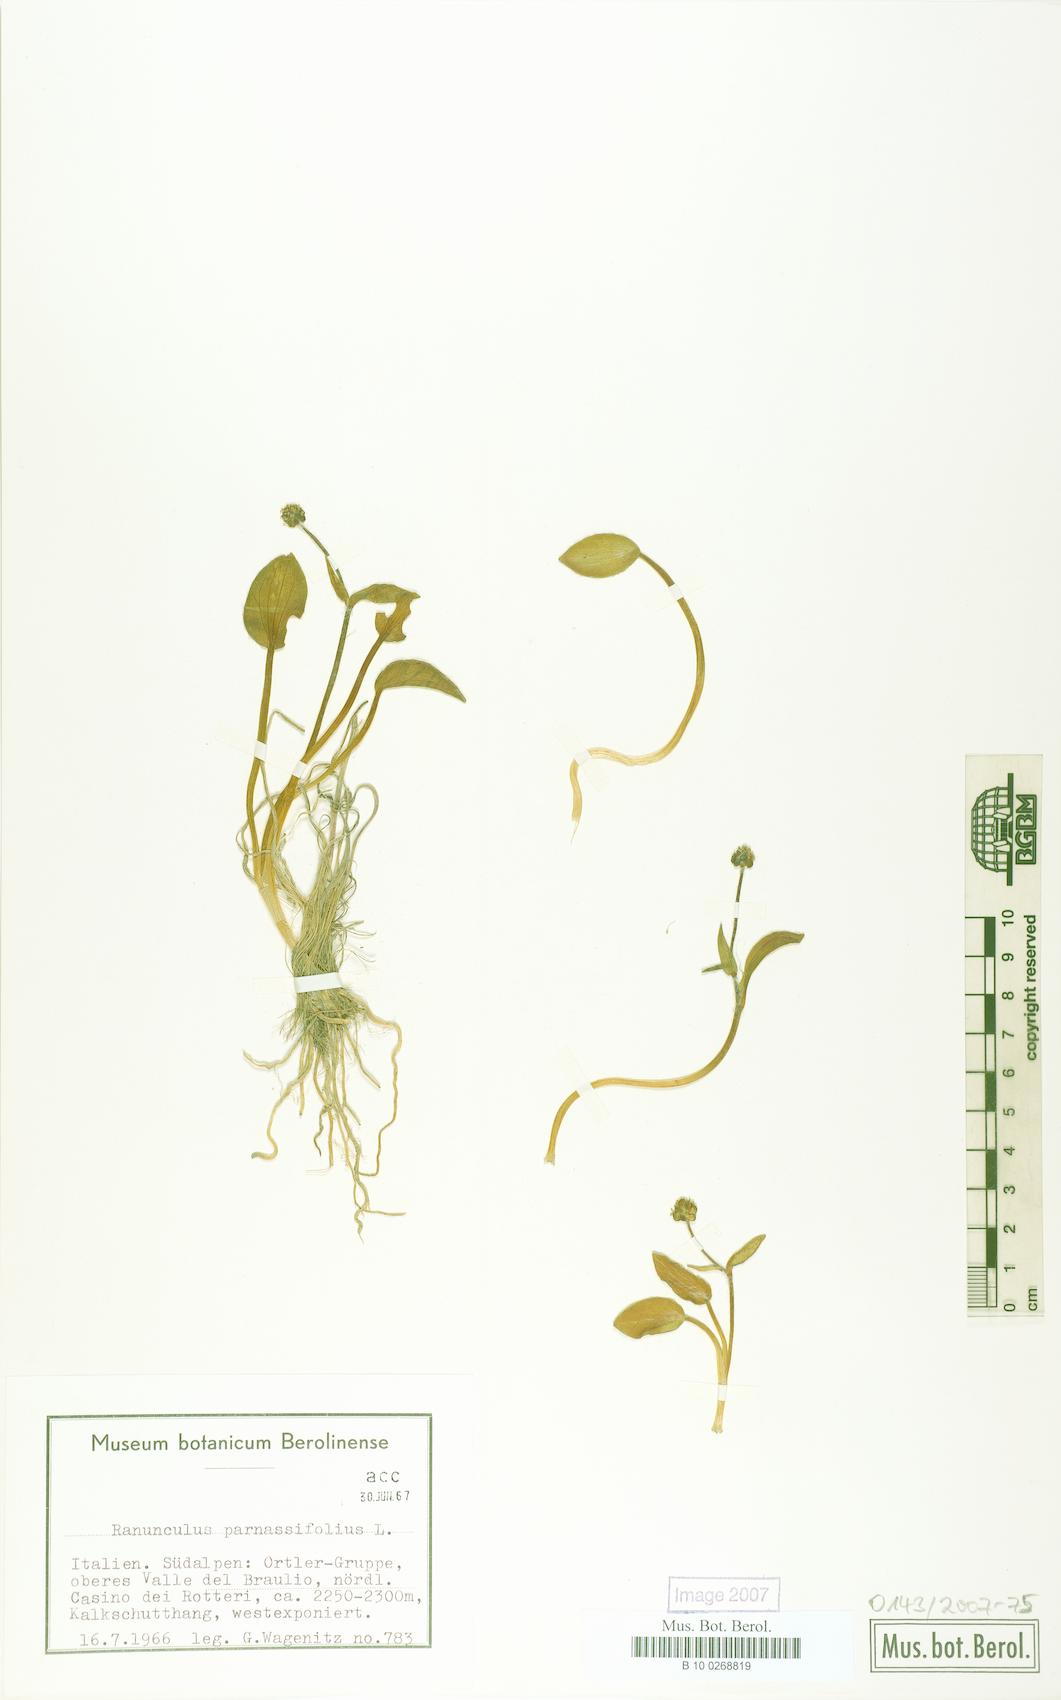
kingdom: Plantae
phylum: Tracheophyta
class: Magnoliopsida
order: Ranunculales
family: Ranunculaceae
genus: Ranunculus
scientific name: Ranunculus parnassiifolius
